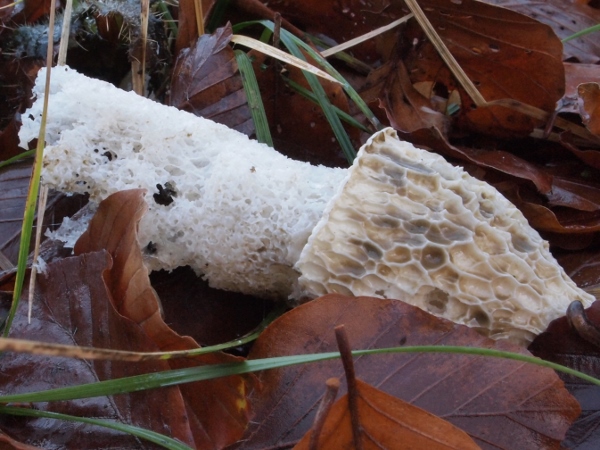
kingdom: Fungi
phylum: Basidiomycota
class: Agaricomycetes
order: Phallales
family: Phallaceae
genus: Phallus
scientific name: Phallus impudicus
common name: almindelig stinksvamp
